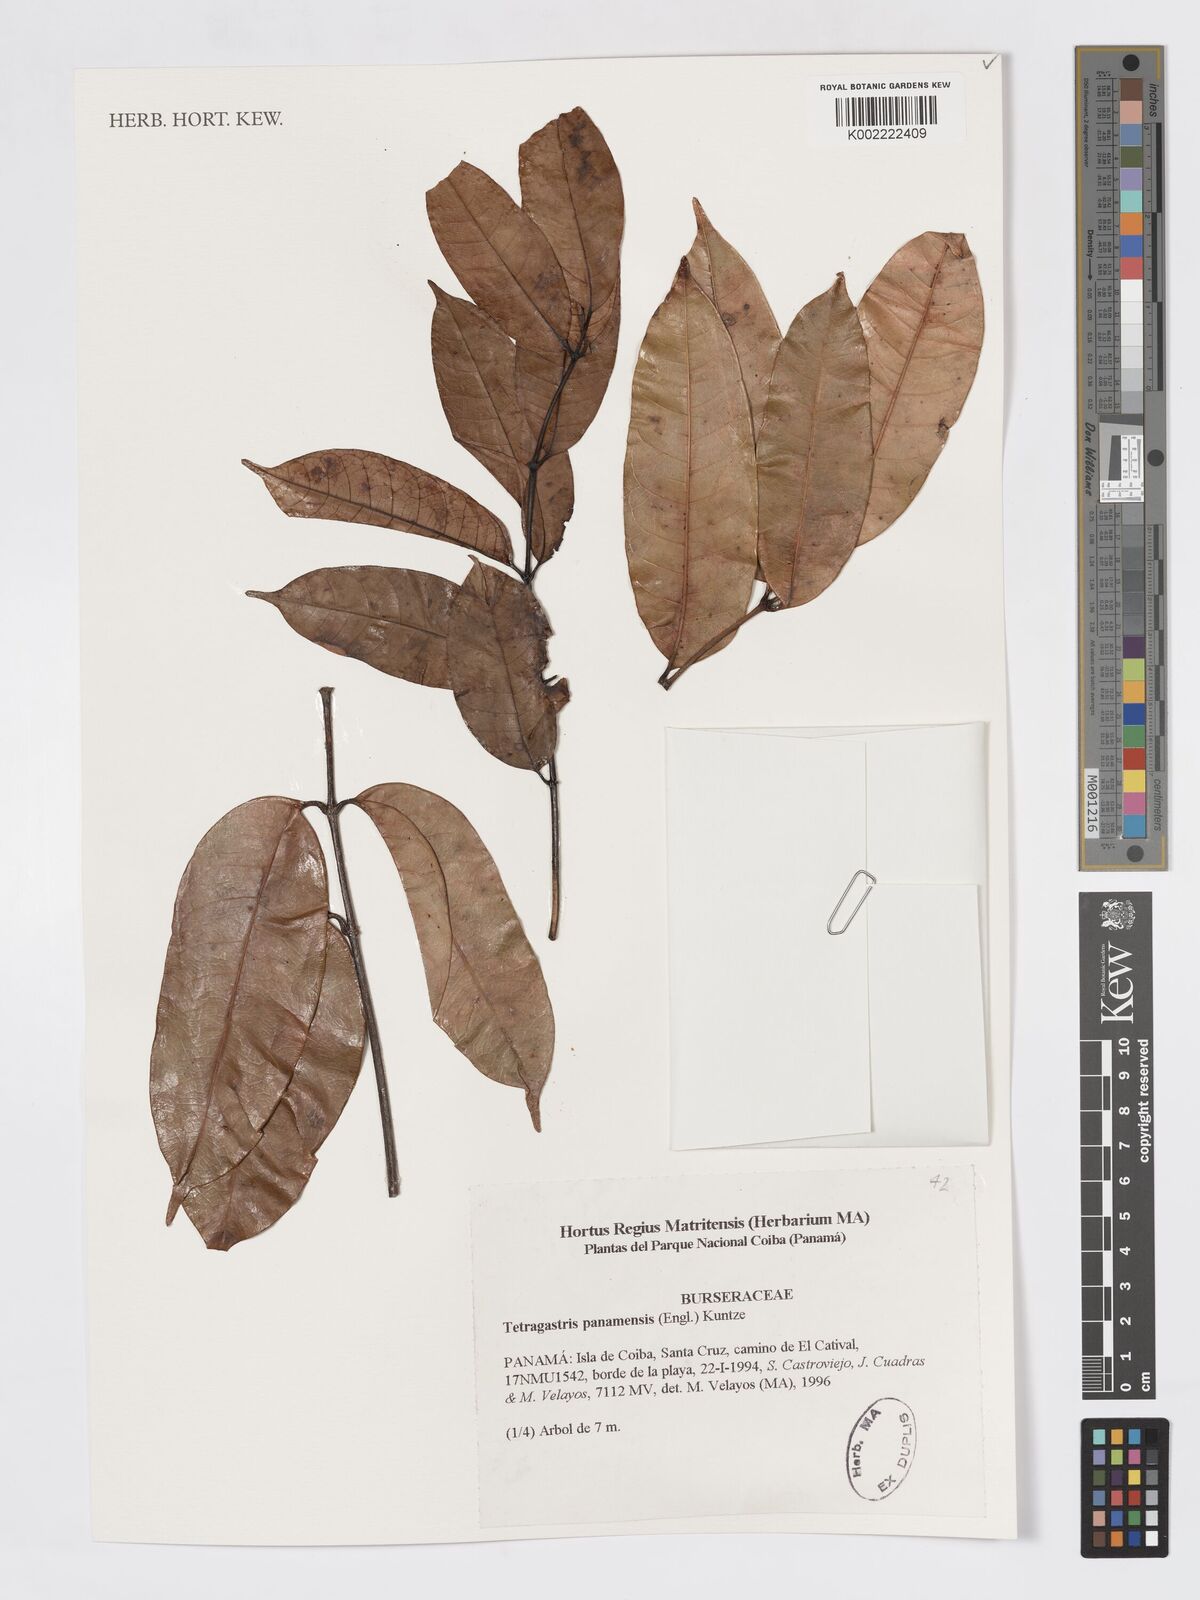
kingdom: Plantae
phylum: Tracheophyta
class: Magnoliopsida
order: Sapindales
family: Burseraceae
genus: Tetragastris
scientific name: Tetragastris panamensis
